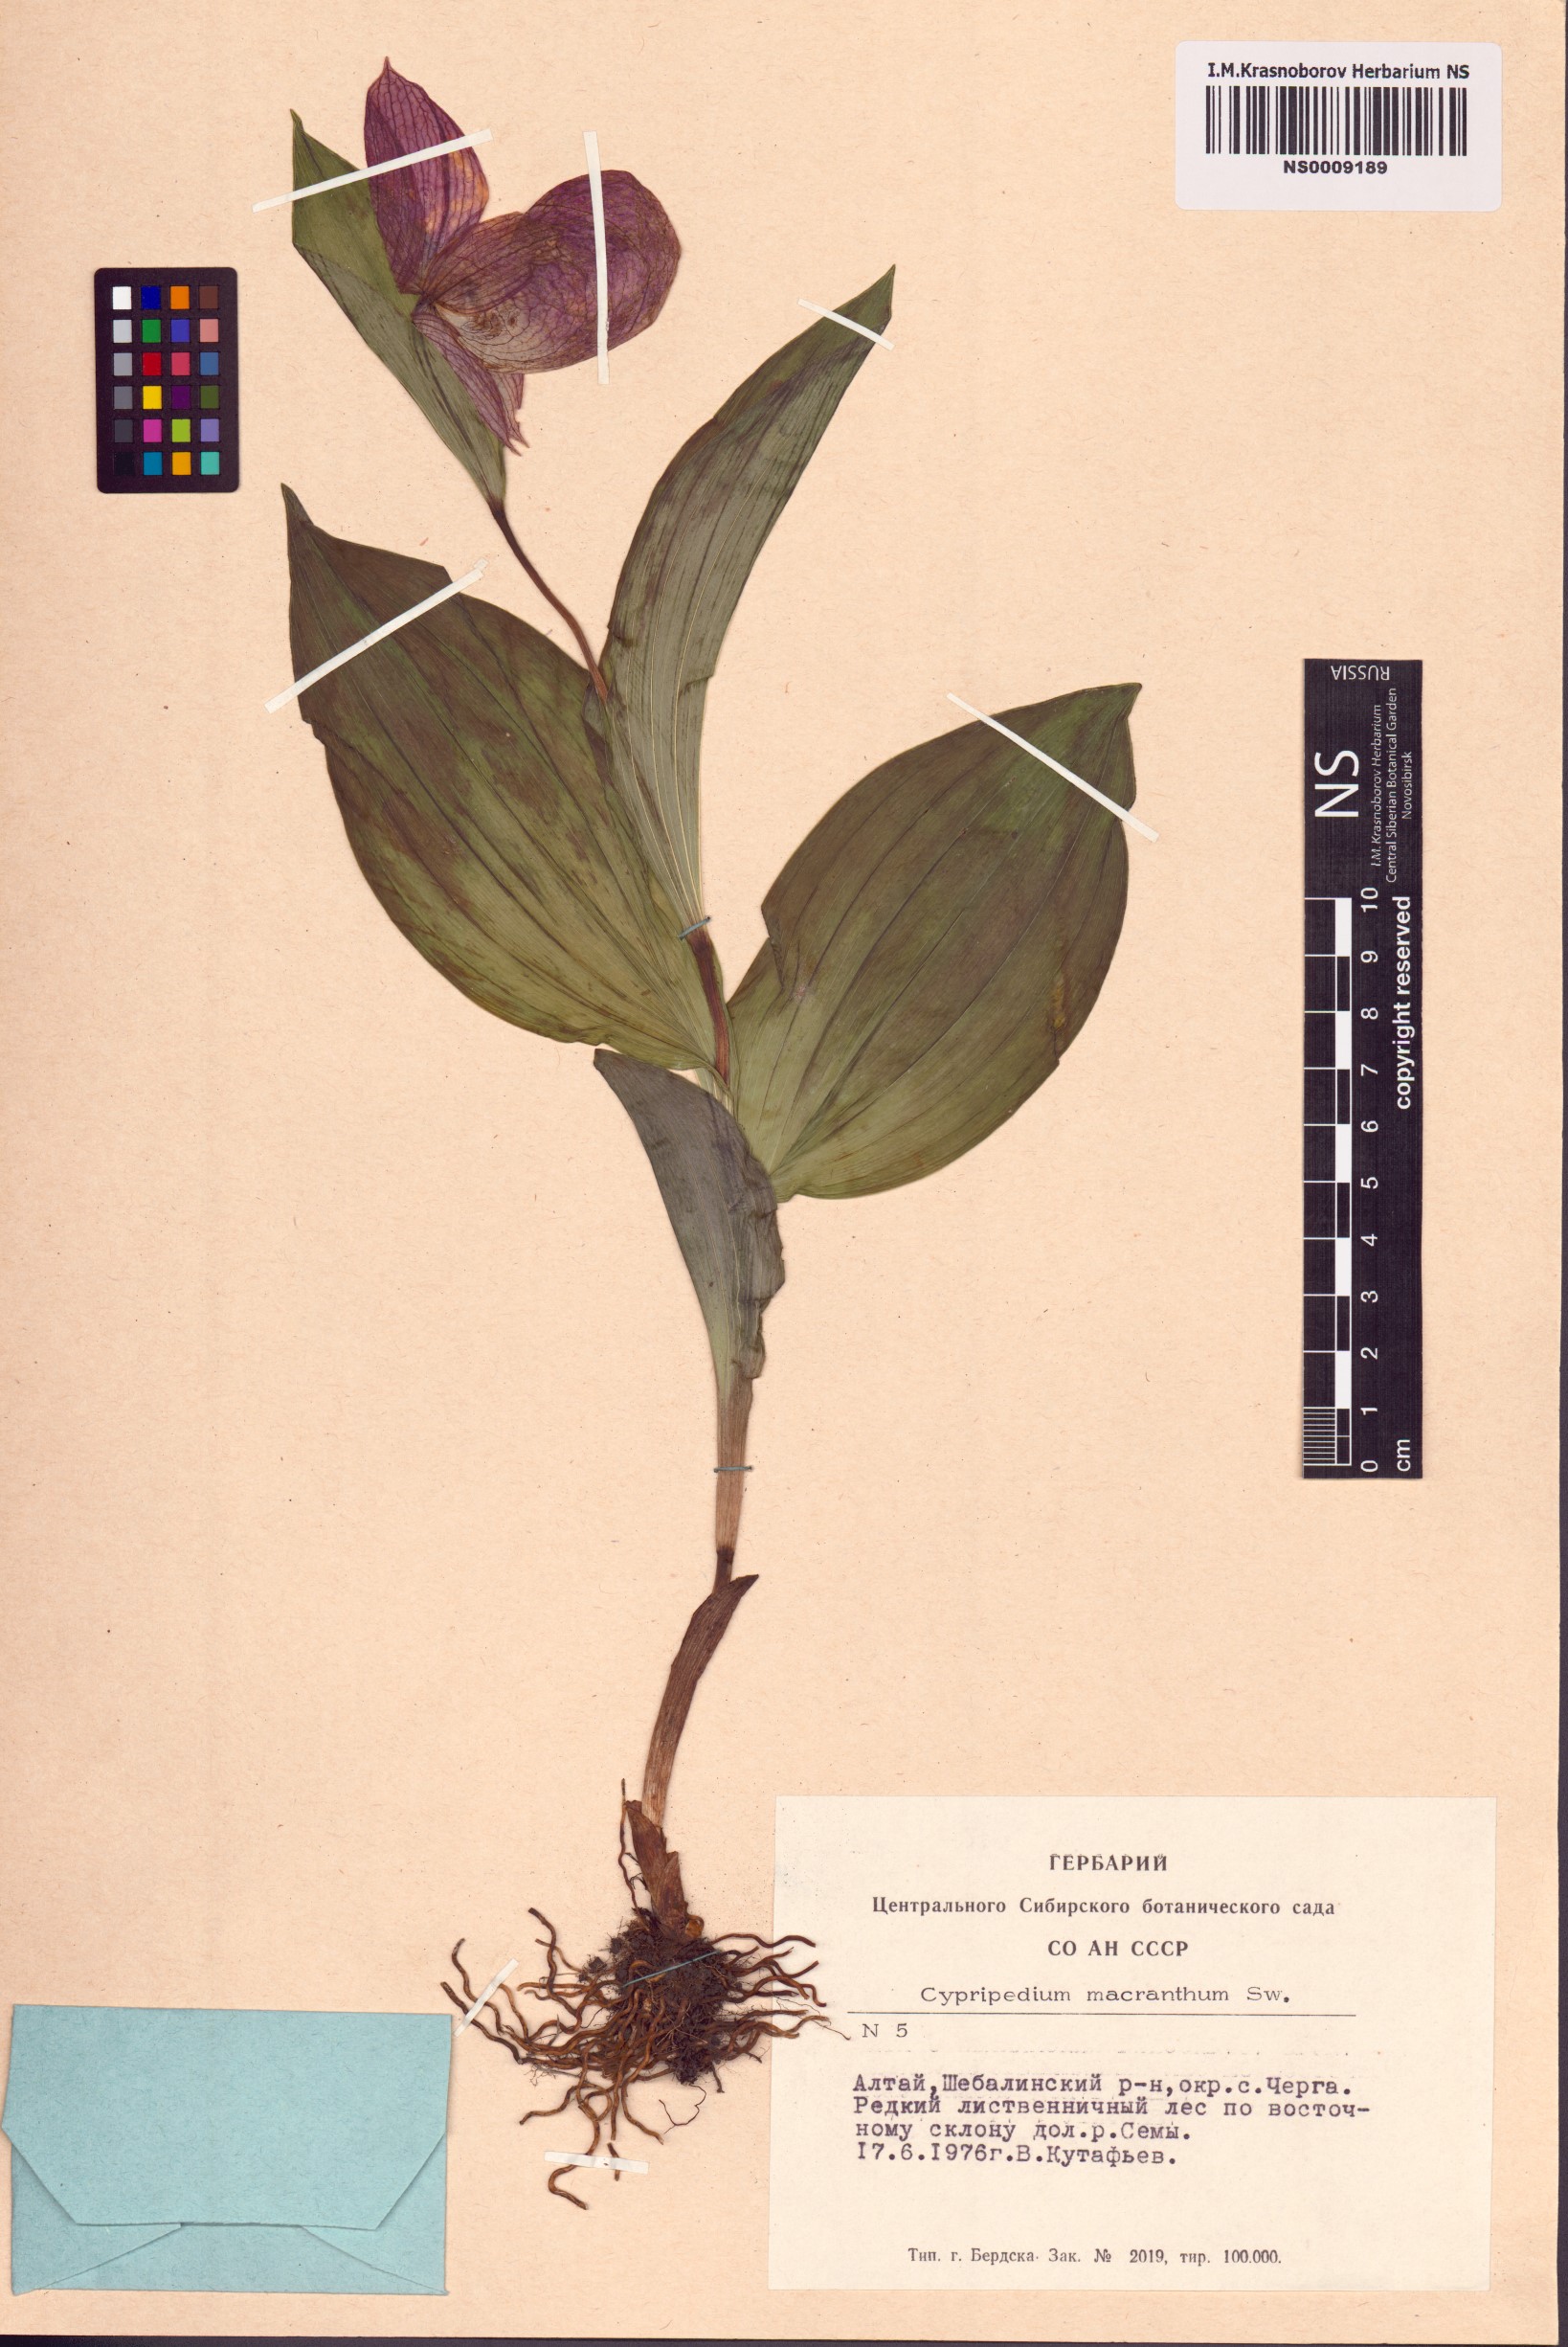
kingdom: Plantae
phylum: Tracheophyta
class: Liliopsida
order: Asparagales
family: Orchidaceae
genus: Cypripedium
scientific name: Cypripedium macranthos
